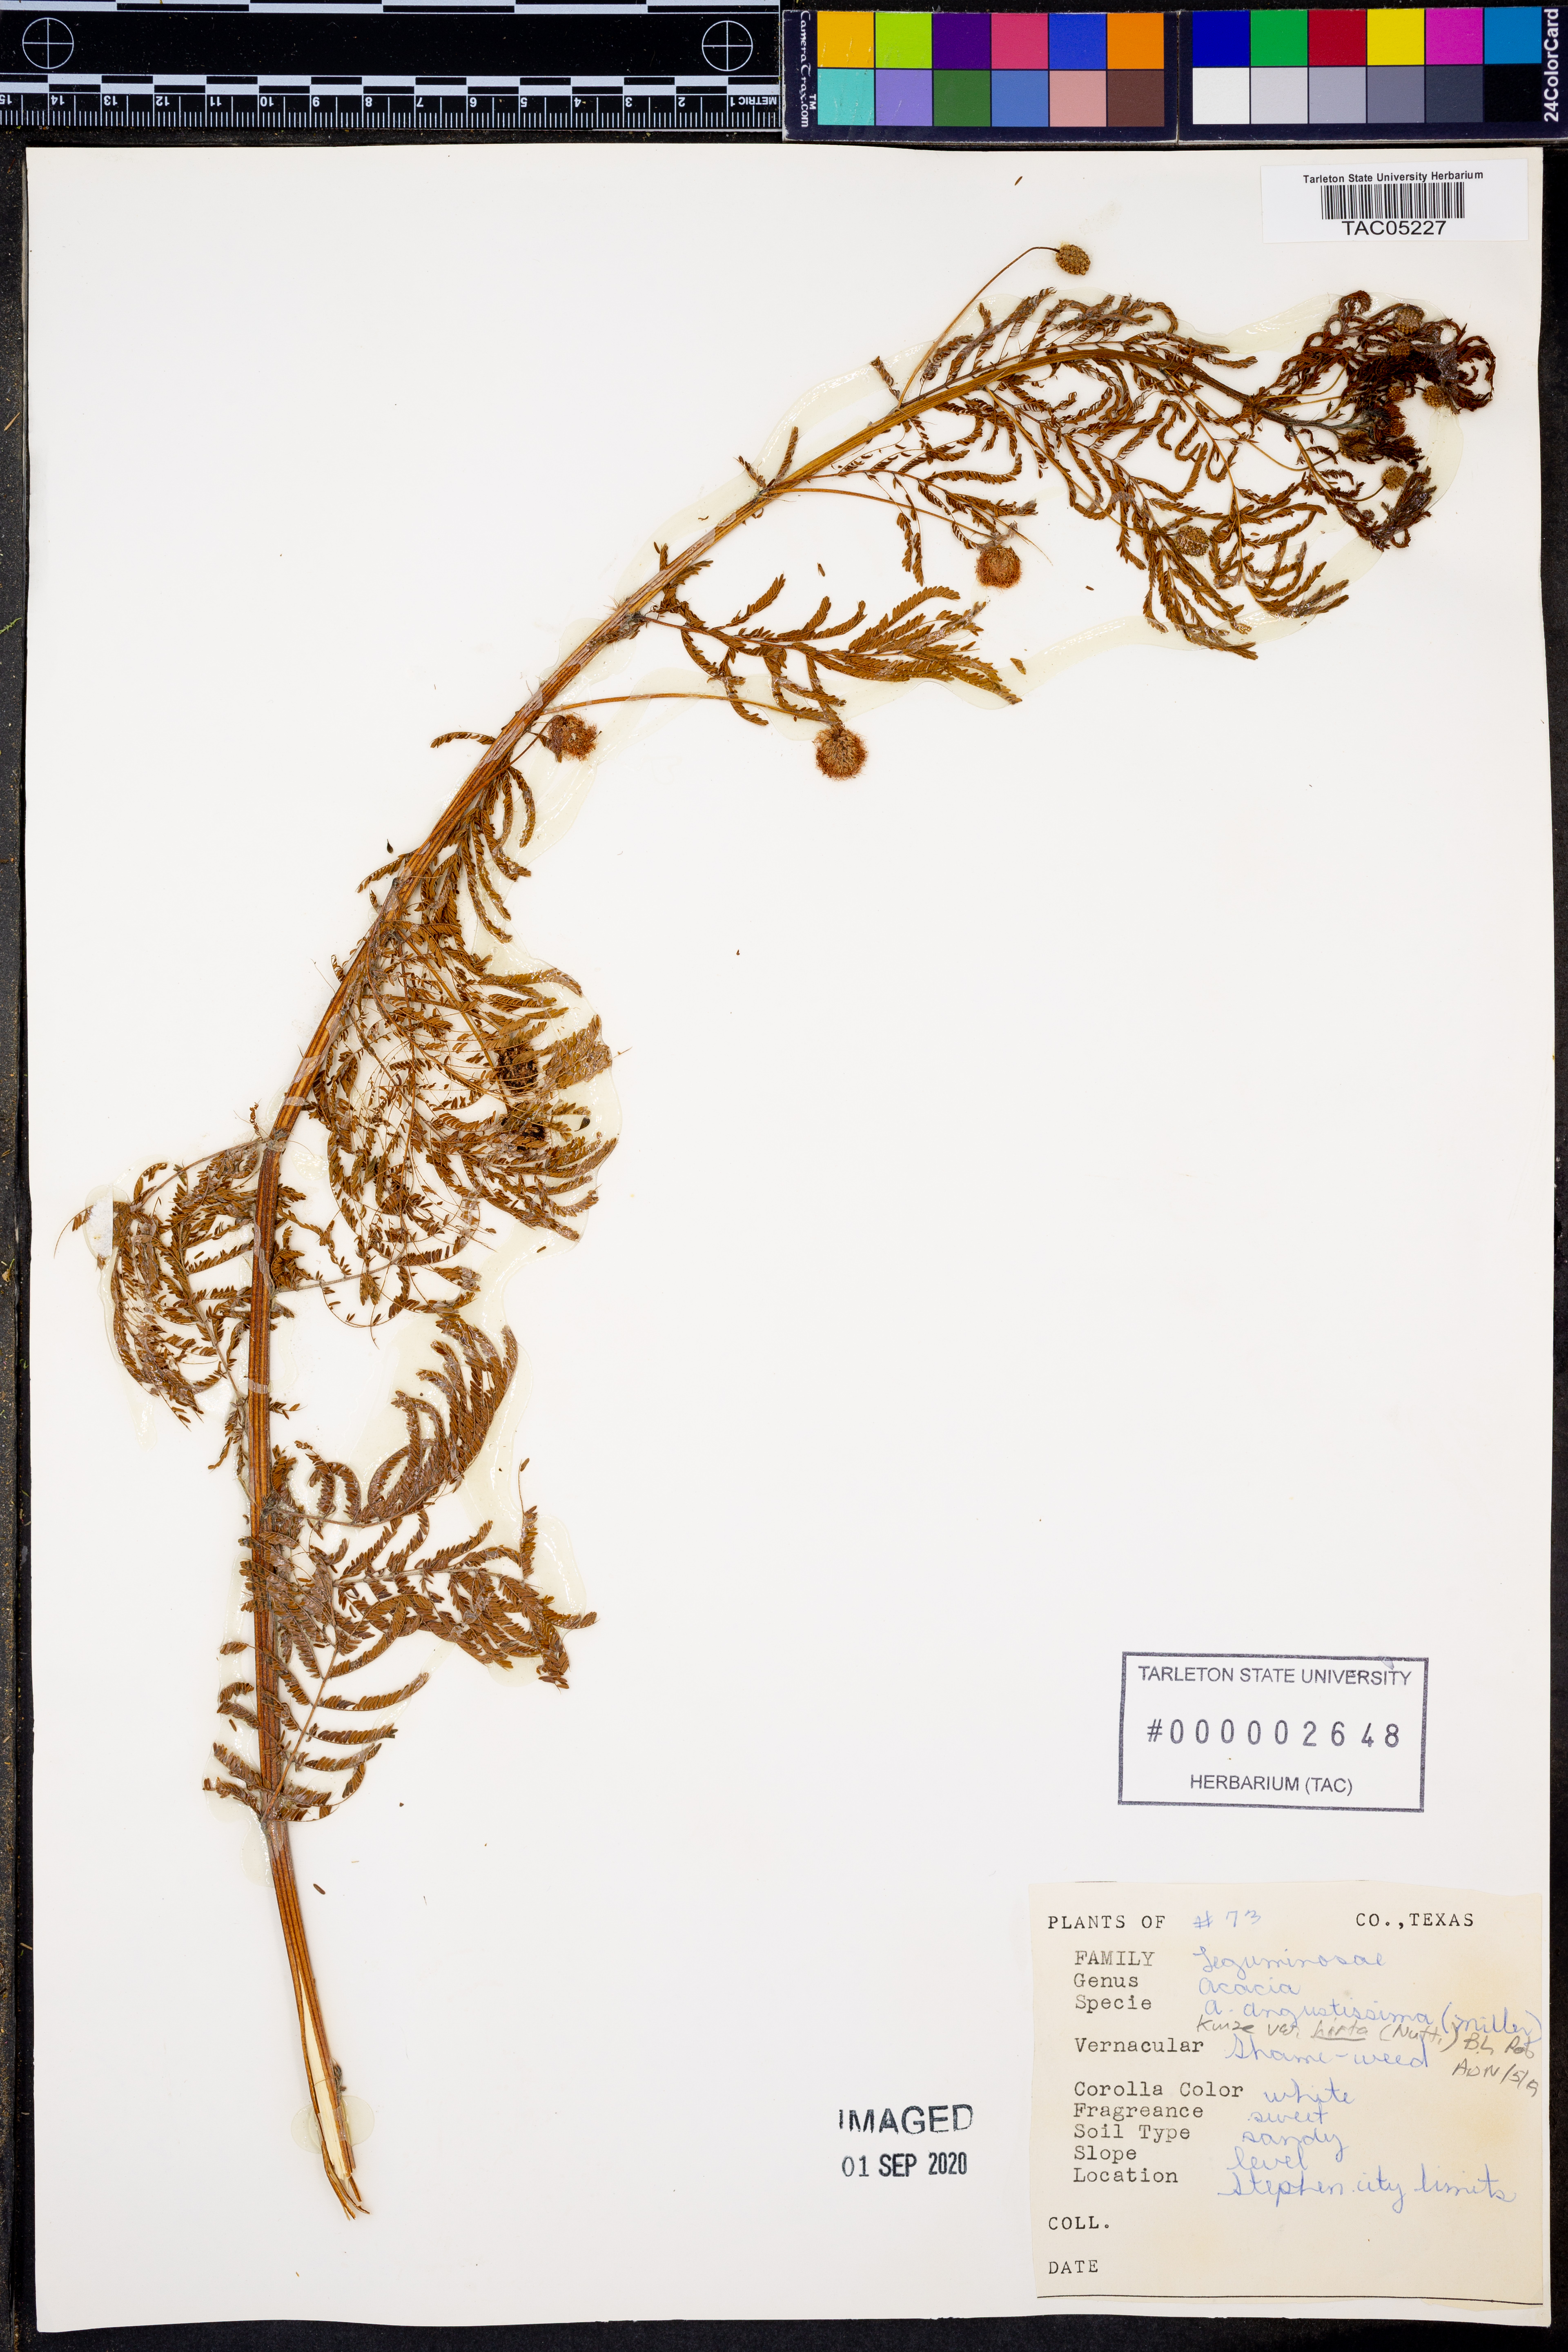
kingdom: Plantae
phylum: Tracheophyta
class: Magnoliopsida
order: Fabales
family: Fabaceae
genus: Acaciella
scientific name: Acaciella angustissima
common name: Prairie acacia
